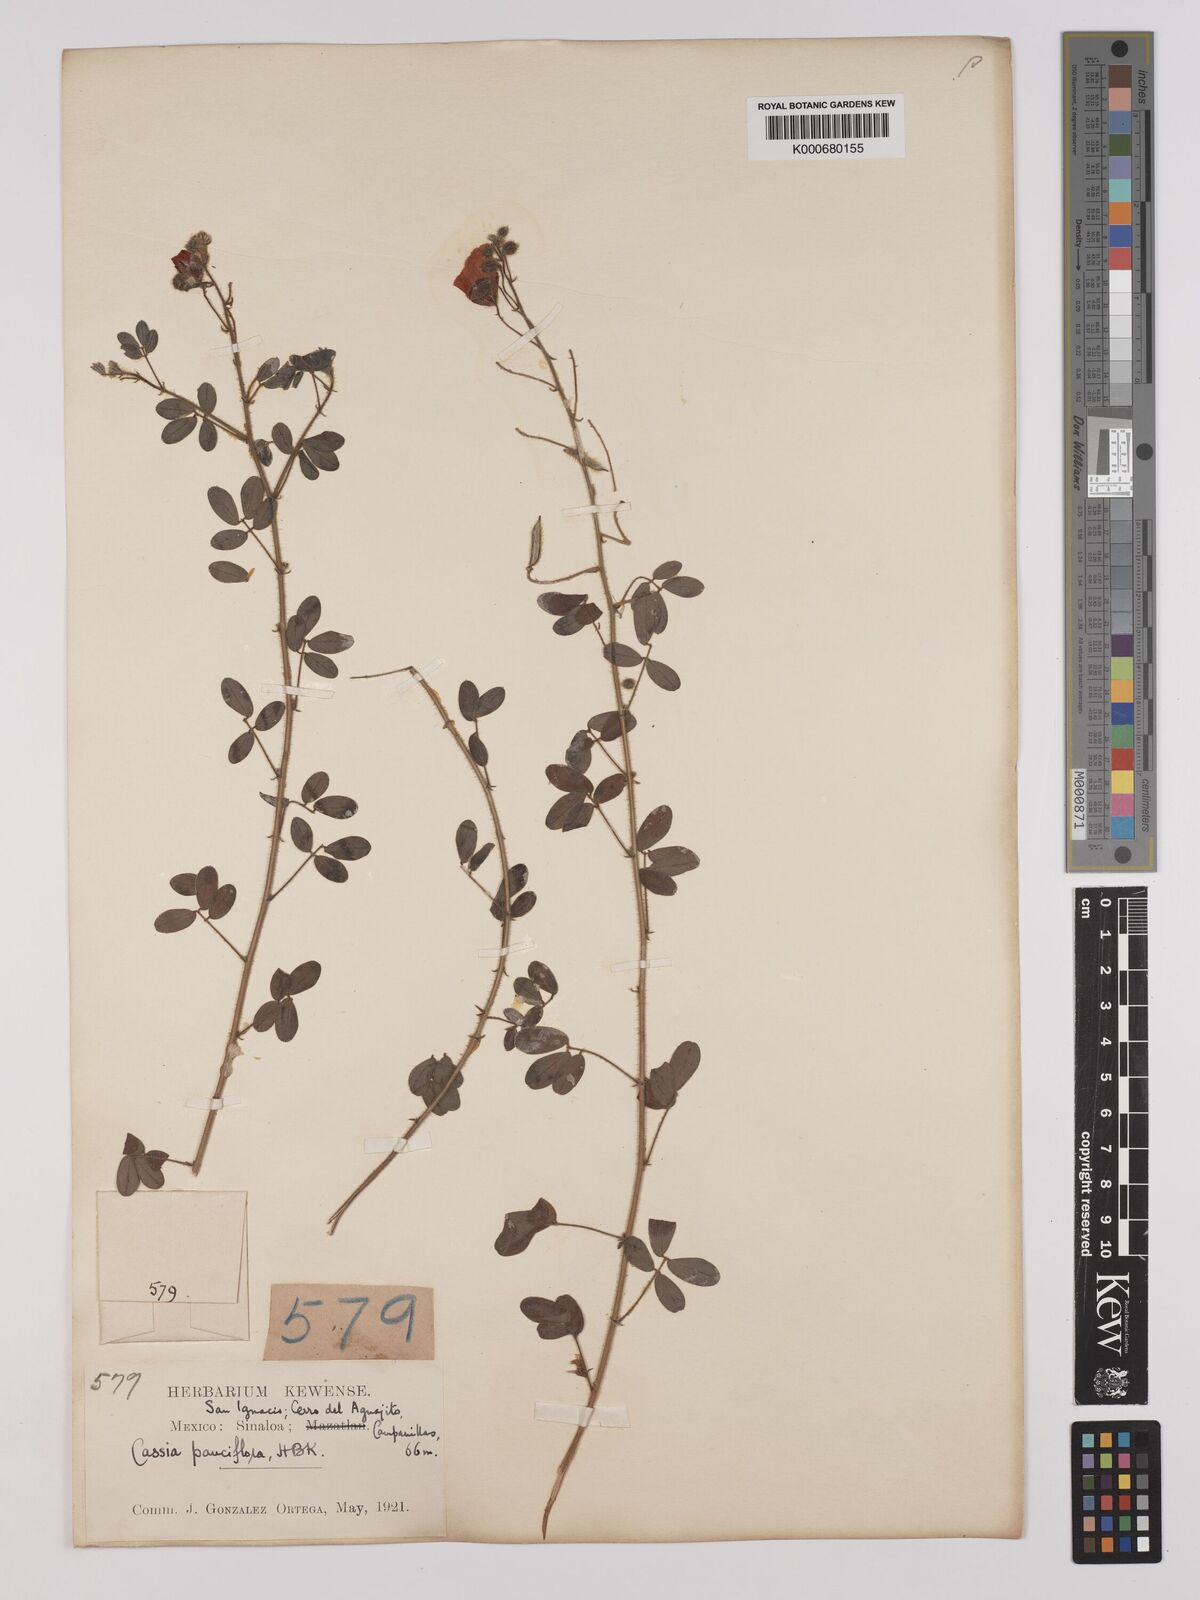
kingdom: Plantae
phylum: Tracheophyta
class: Magnoliopsida
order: Fabales
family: Fabaceae
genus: Chamaecrista
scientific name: Chamaecrista hispidula
